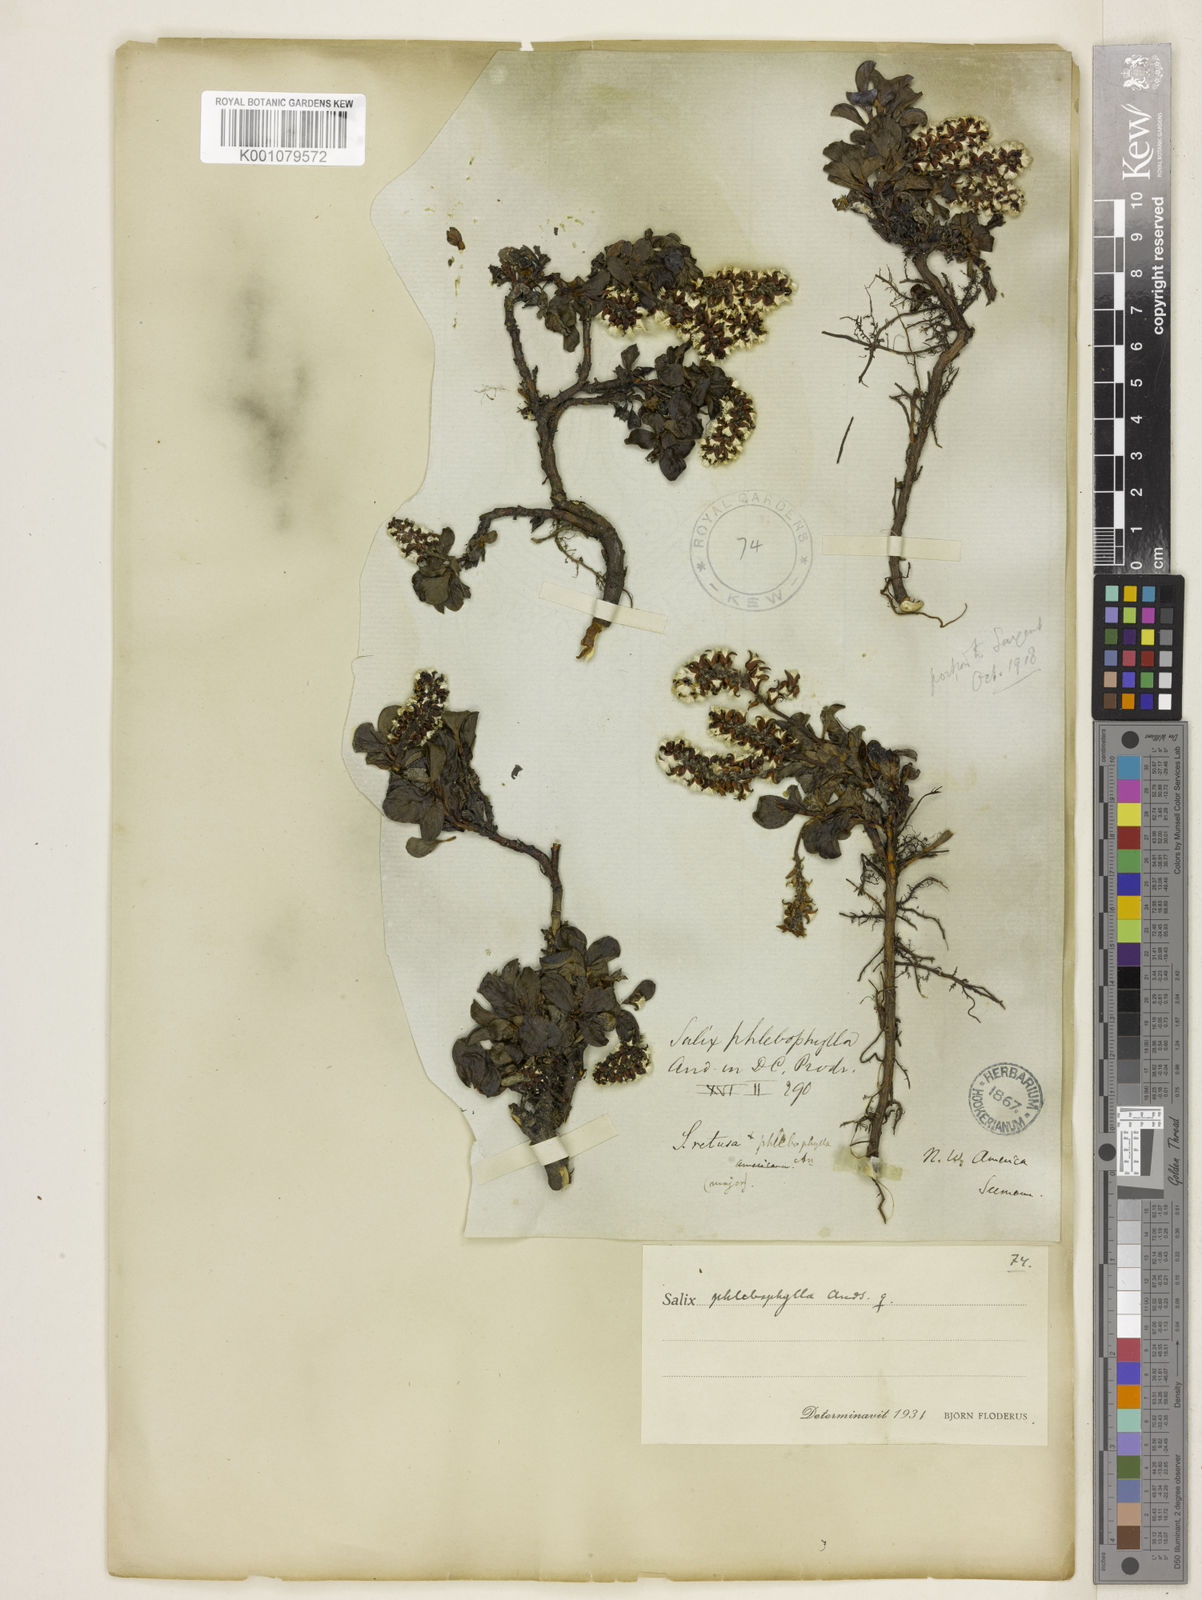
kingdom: Plantae
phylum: Tracheophyta
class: Magnoliopsida
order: Malpighiales
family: Salicaceae
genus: Salix
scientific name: Salix phlebophylla
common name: Skeleton-leaved willow
